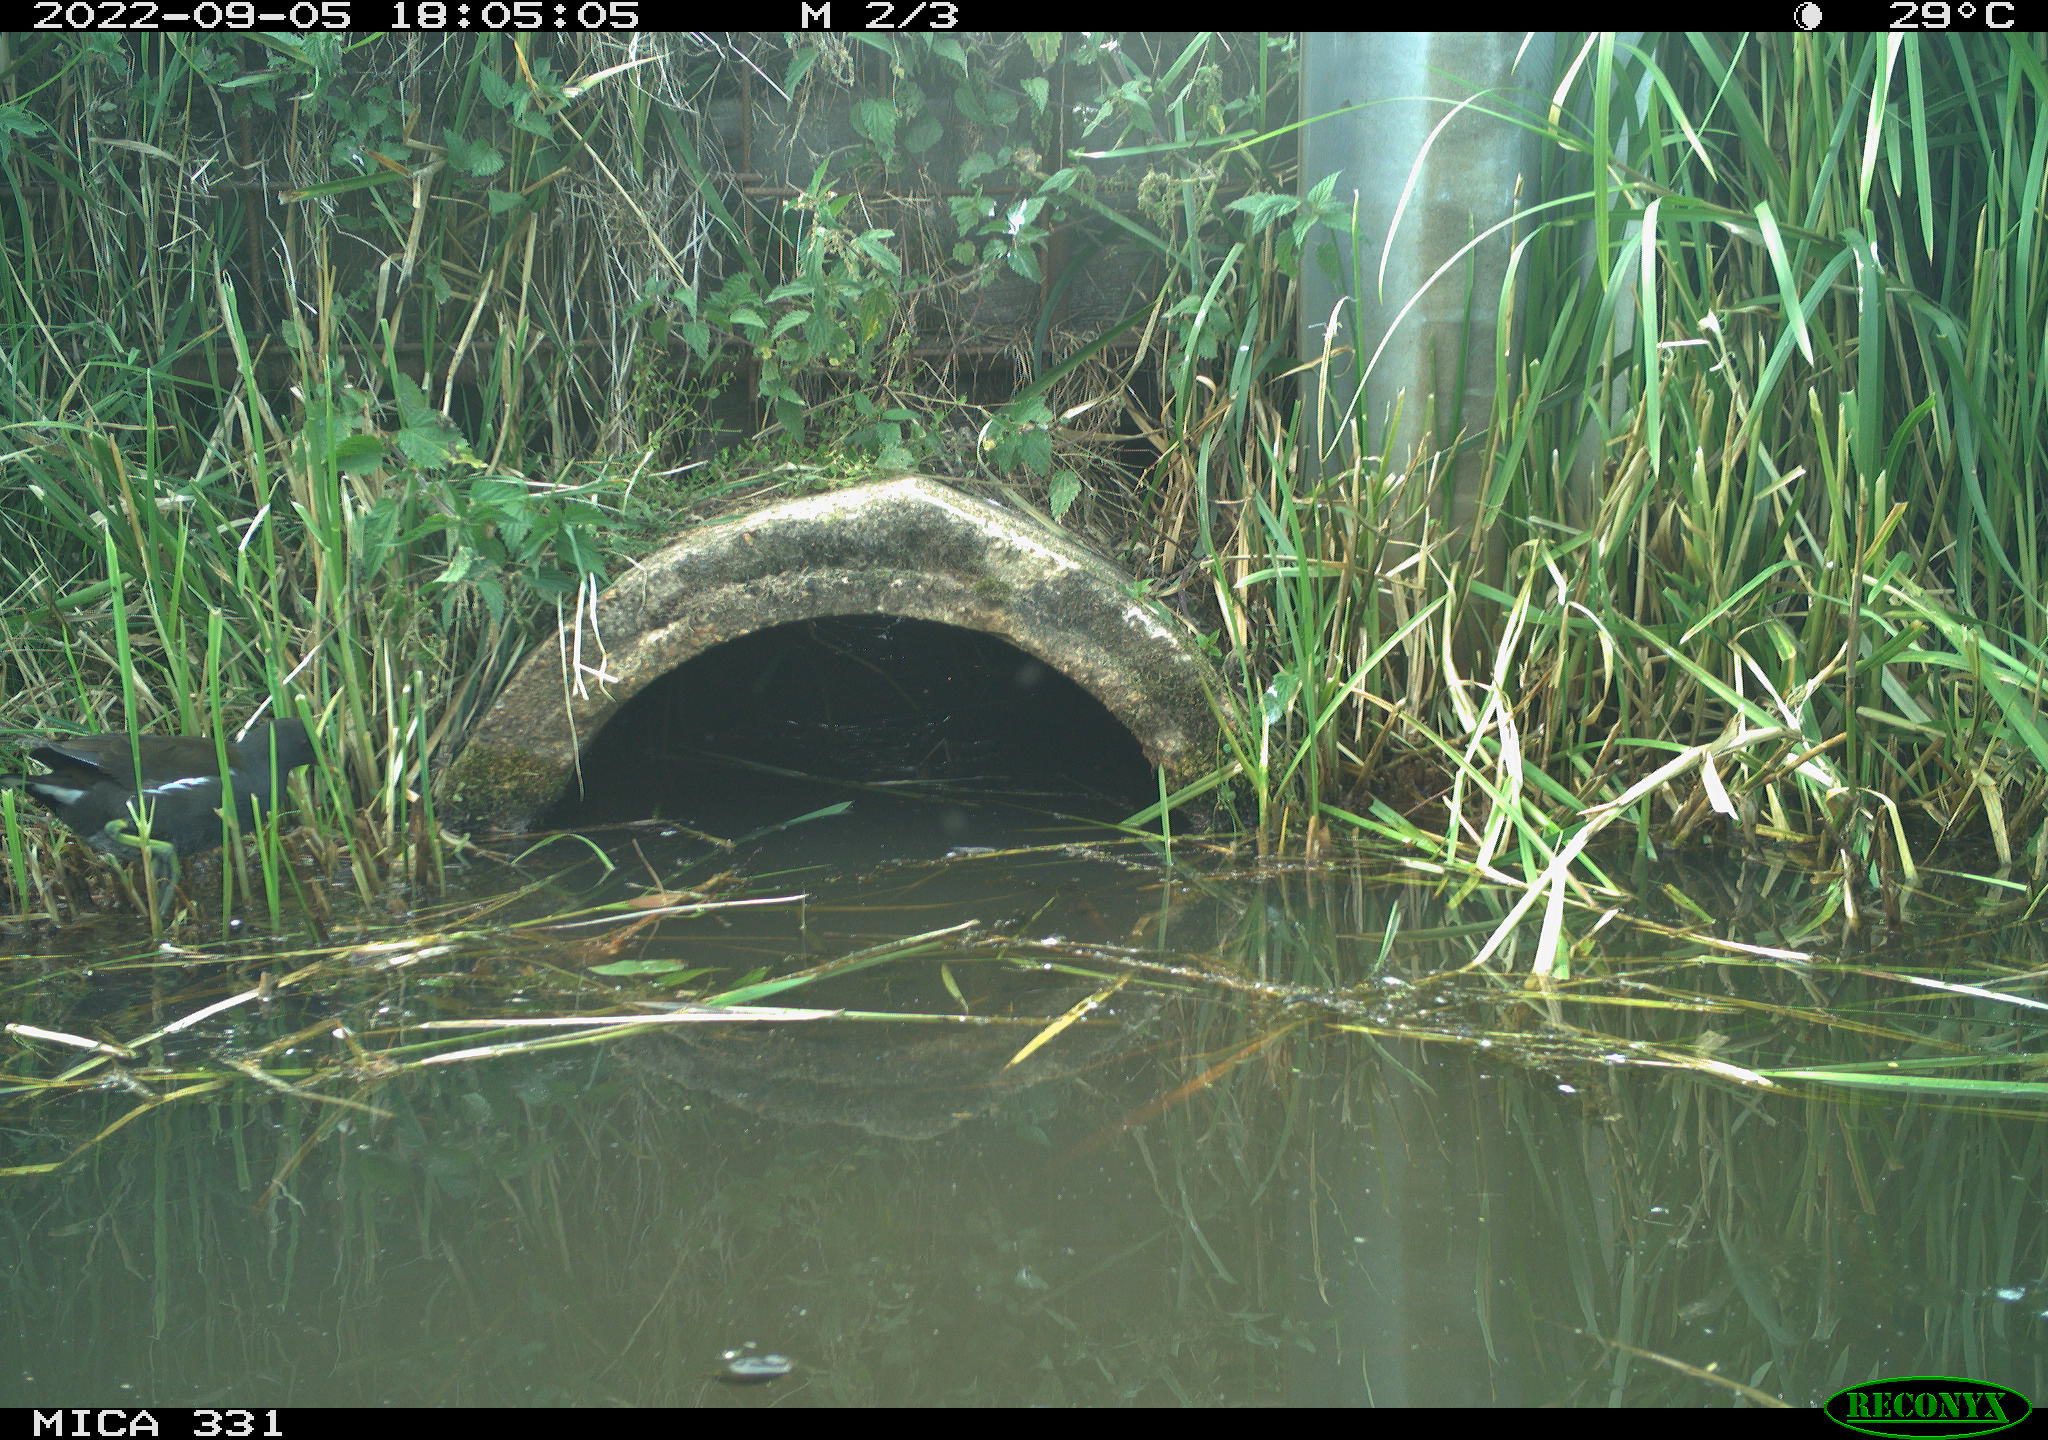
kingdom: Animalia
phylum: Chordata
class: Aves
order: Gruiformes
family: Rallidae
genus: Gallinula
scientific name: Gallinula chloropus
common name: Common moorhen
